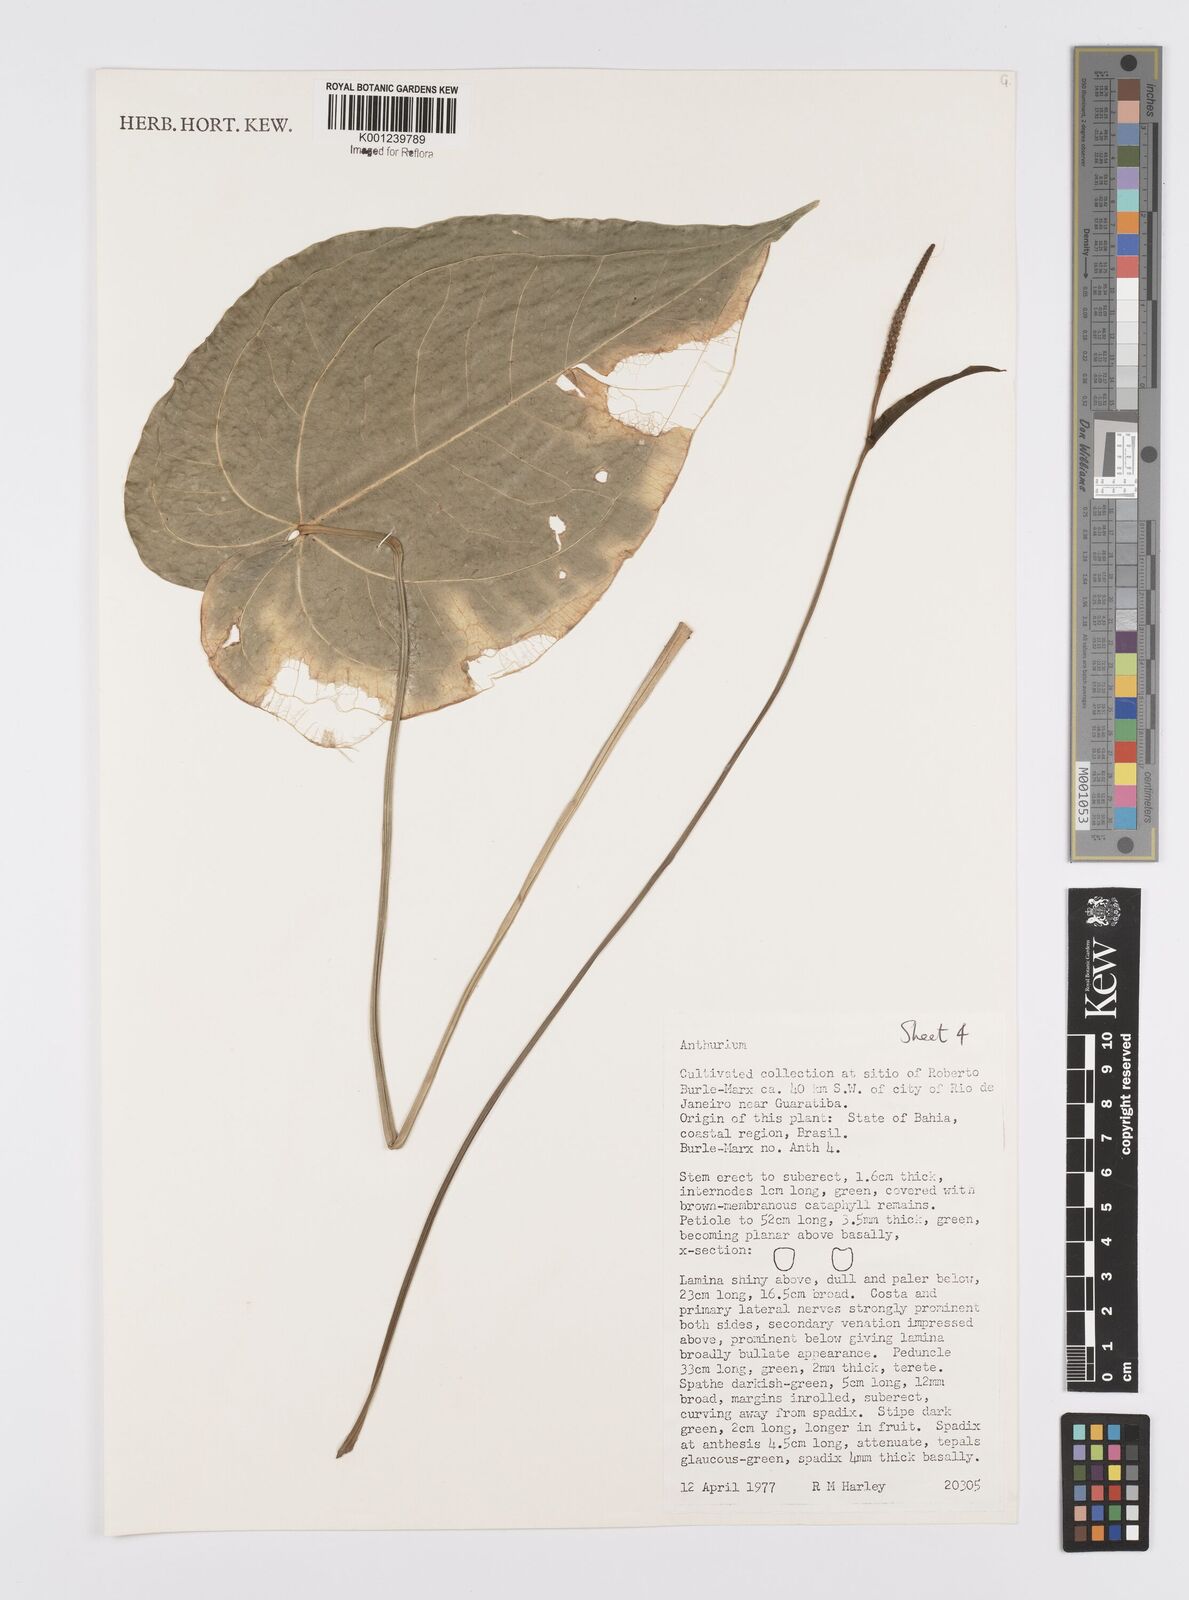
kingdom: Plantae
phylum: Tracheophyta
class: Liliopsida
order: Alismatales
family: Araceae
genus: Anthurium
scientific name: Anthurium
